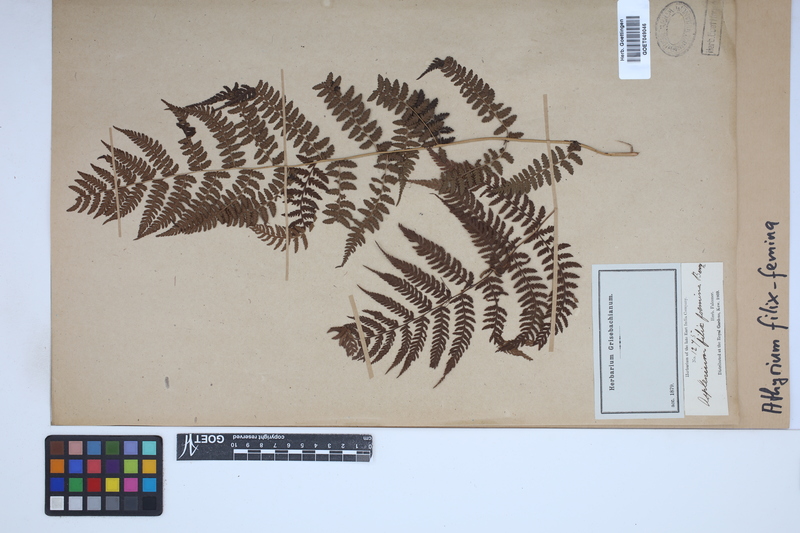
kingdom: Plantae
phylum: Tracheophyta
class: Polypodiopsida
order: Polypodiales
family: Athyriaceae
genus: Athyrium
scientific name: Athyrium filix-femina
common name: Lady fern
